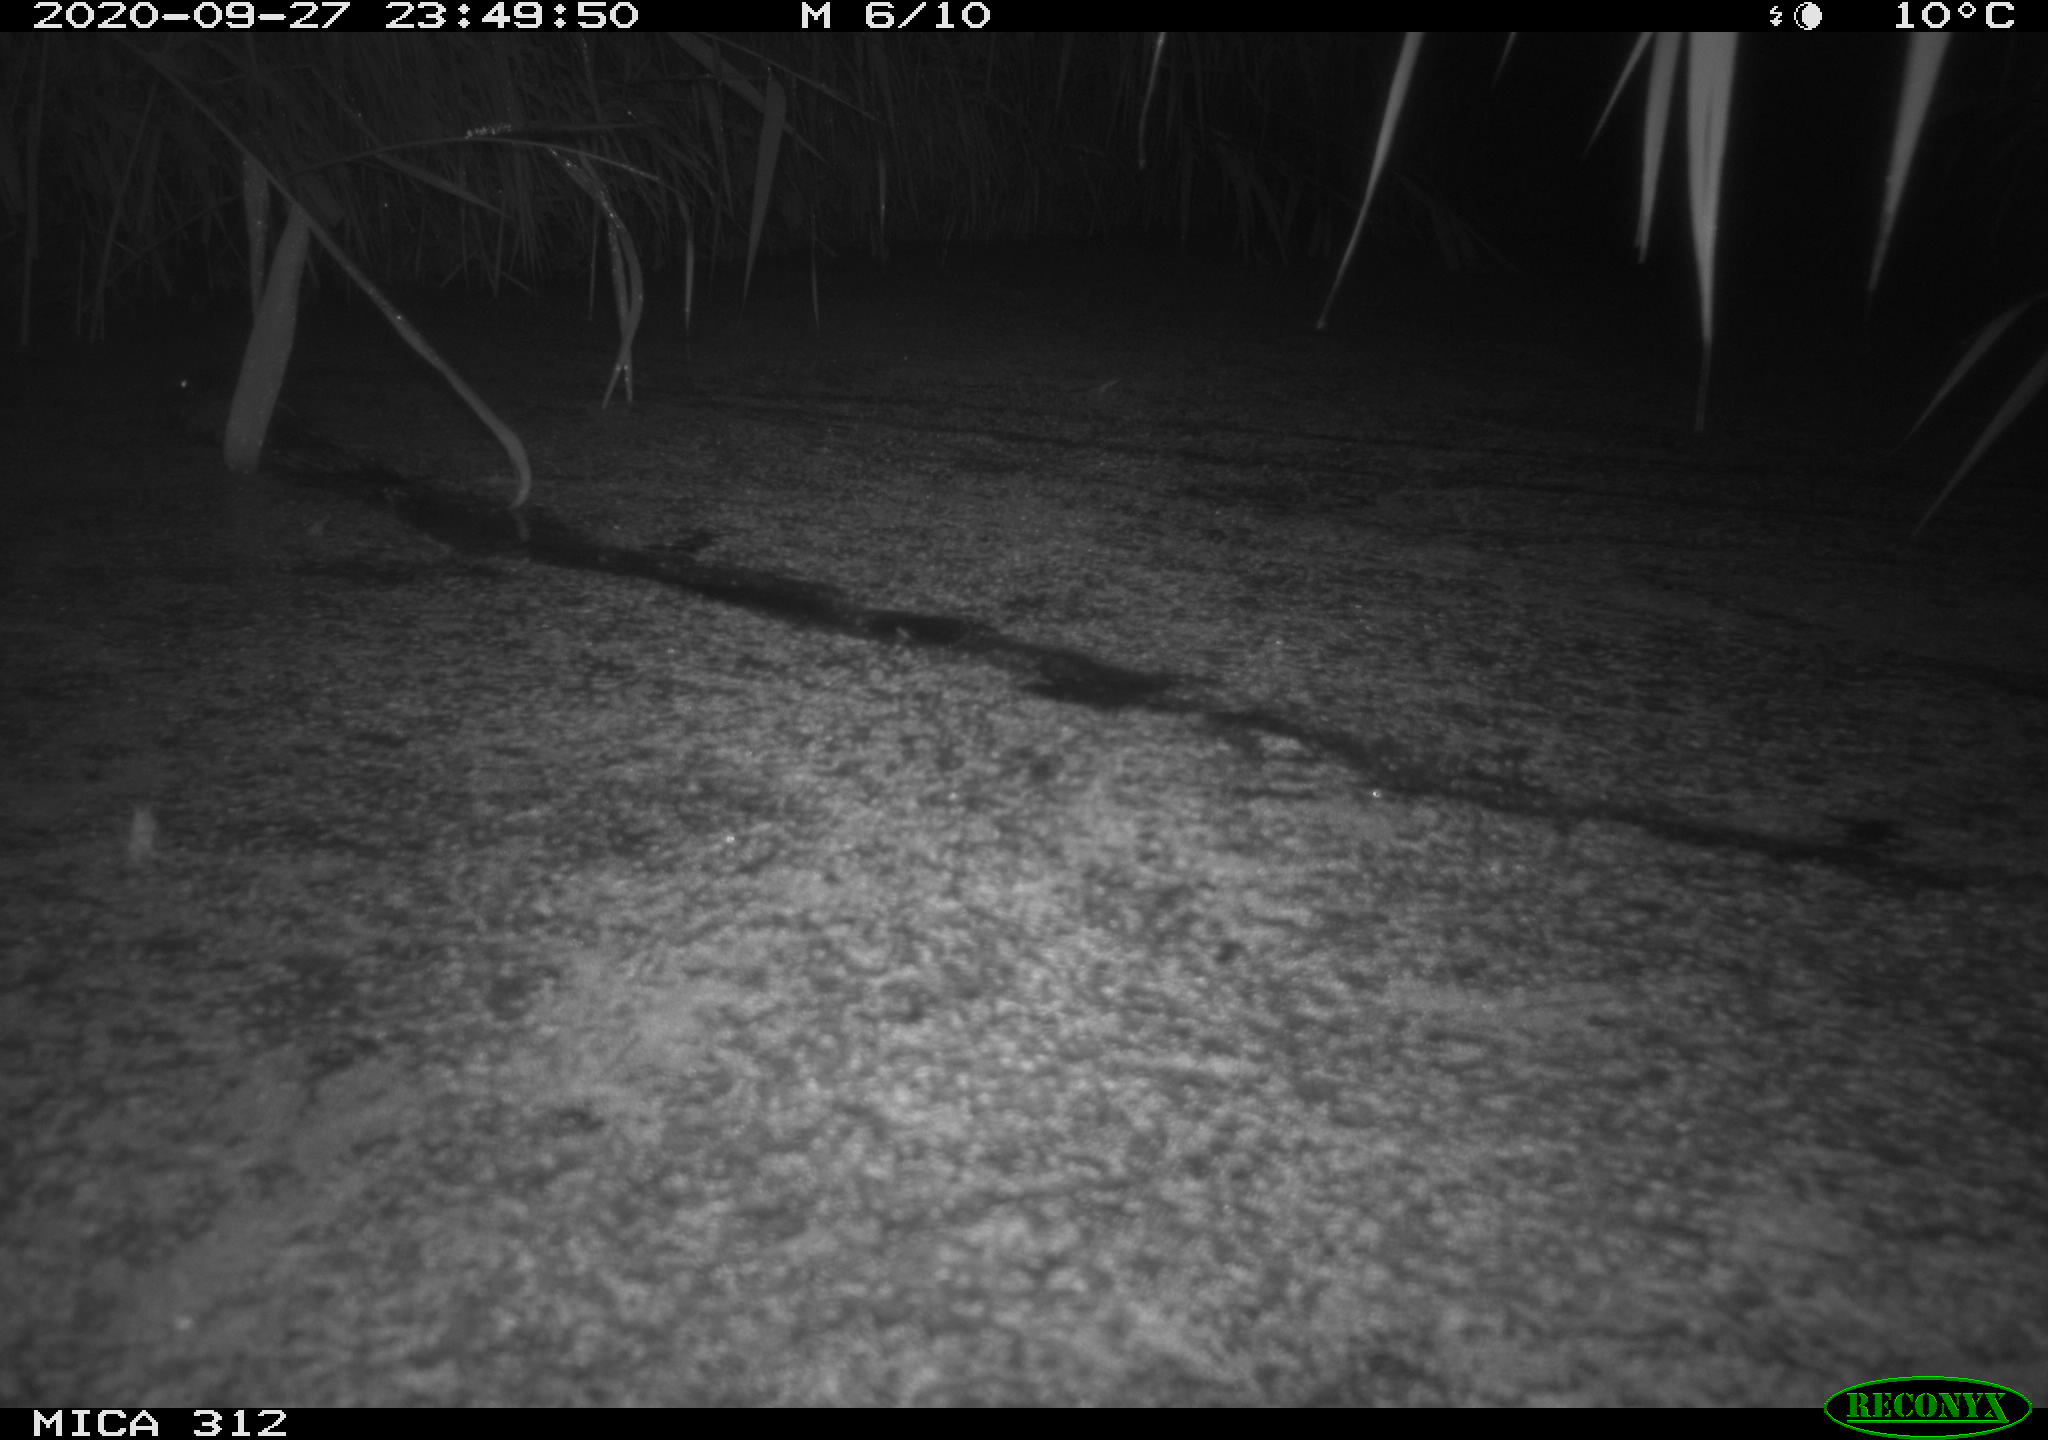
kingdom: Animalia
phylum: Chordata
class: Mammalia
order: Rodentia
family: Cricetidae
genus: Ondatra
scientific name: Ondatra zibethicus
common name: Muskrat
